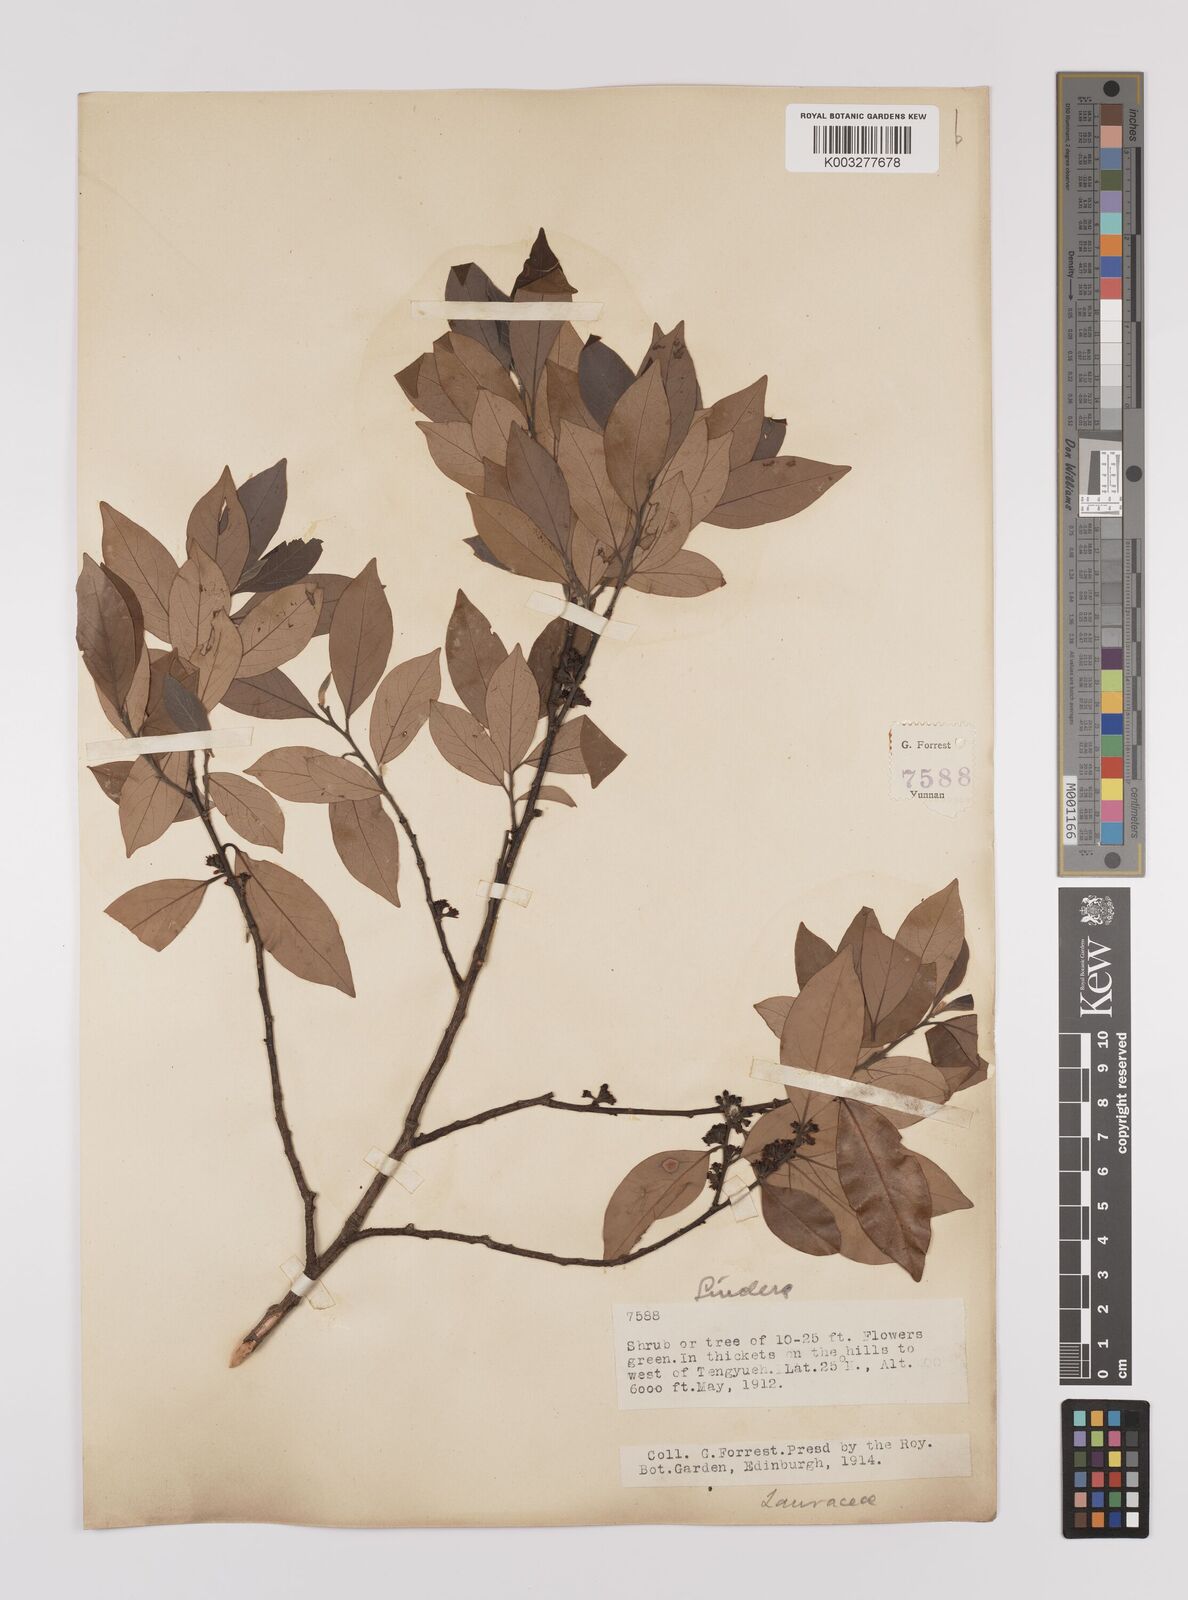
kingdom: Plantae
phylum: Tracheophyta
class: Magnoliopsida
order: Laurales
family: Lauraceae
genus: Litsea
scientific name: Litsea rotundifolia
